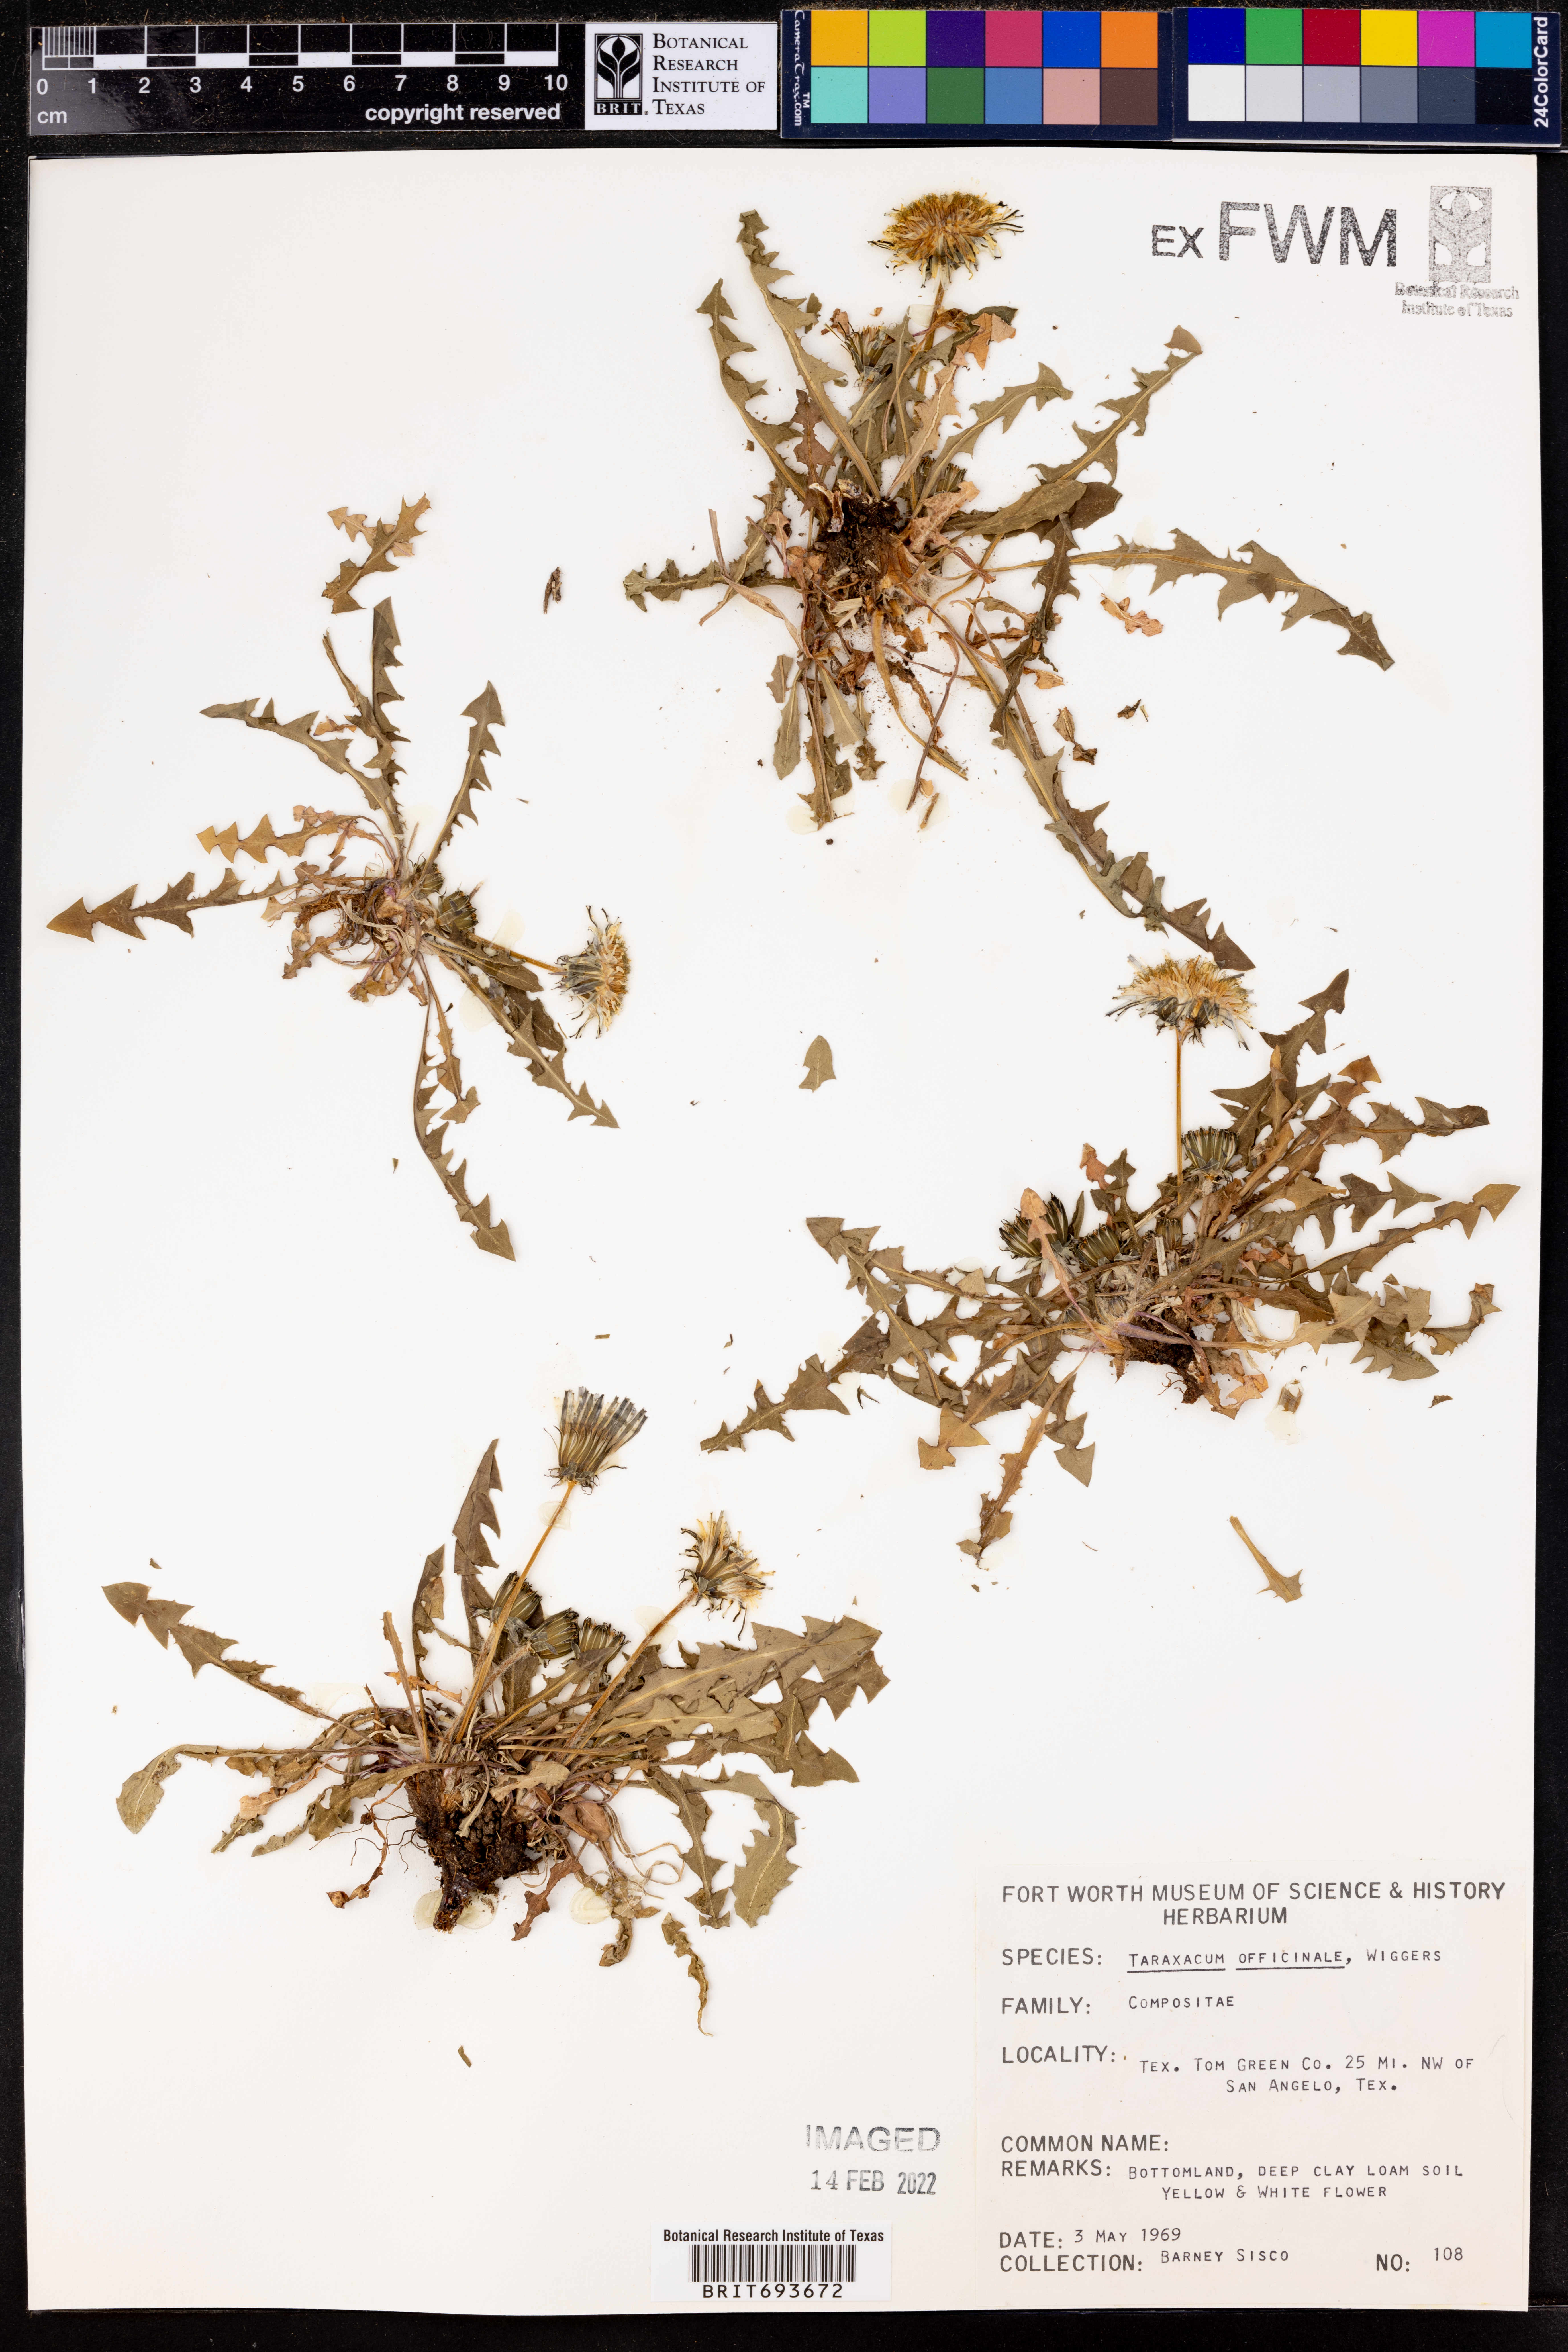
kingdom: Plantae
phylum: Tracheophyta
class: Magnoliopsida
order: Asterales
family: Asteraceae
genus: Taraxacum
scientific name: Taraxacum officinale
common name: Common dandelion
